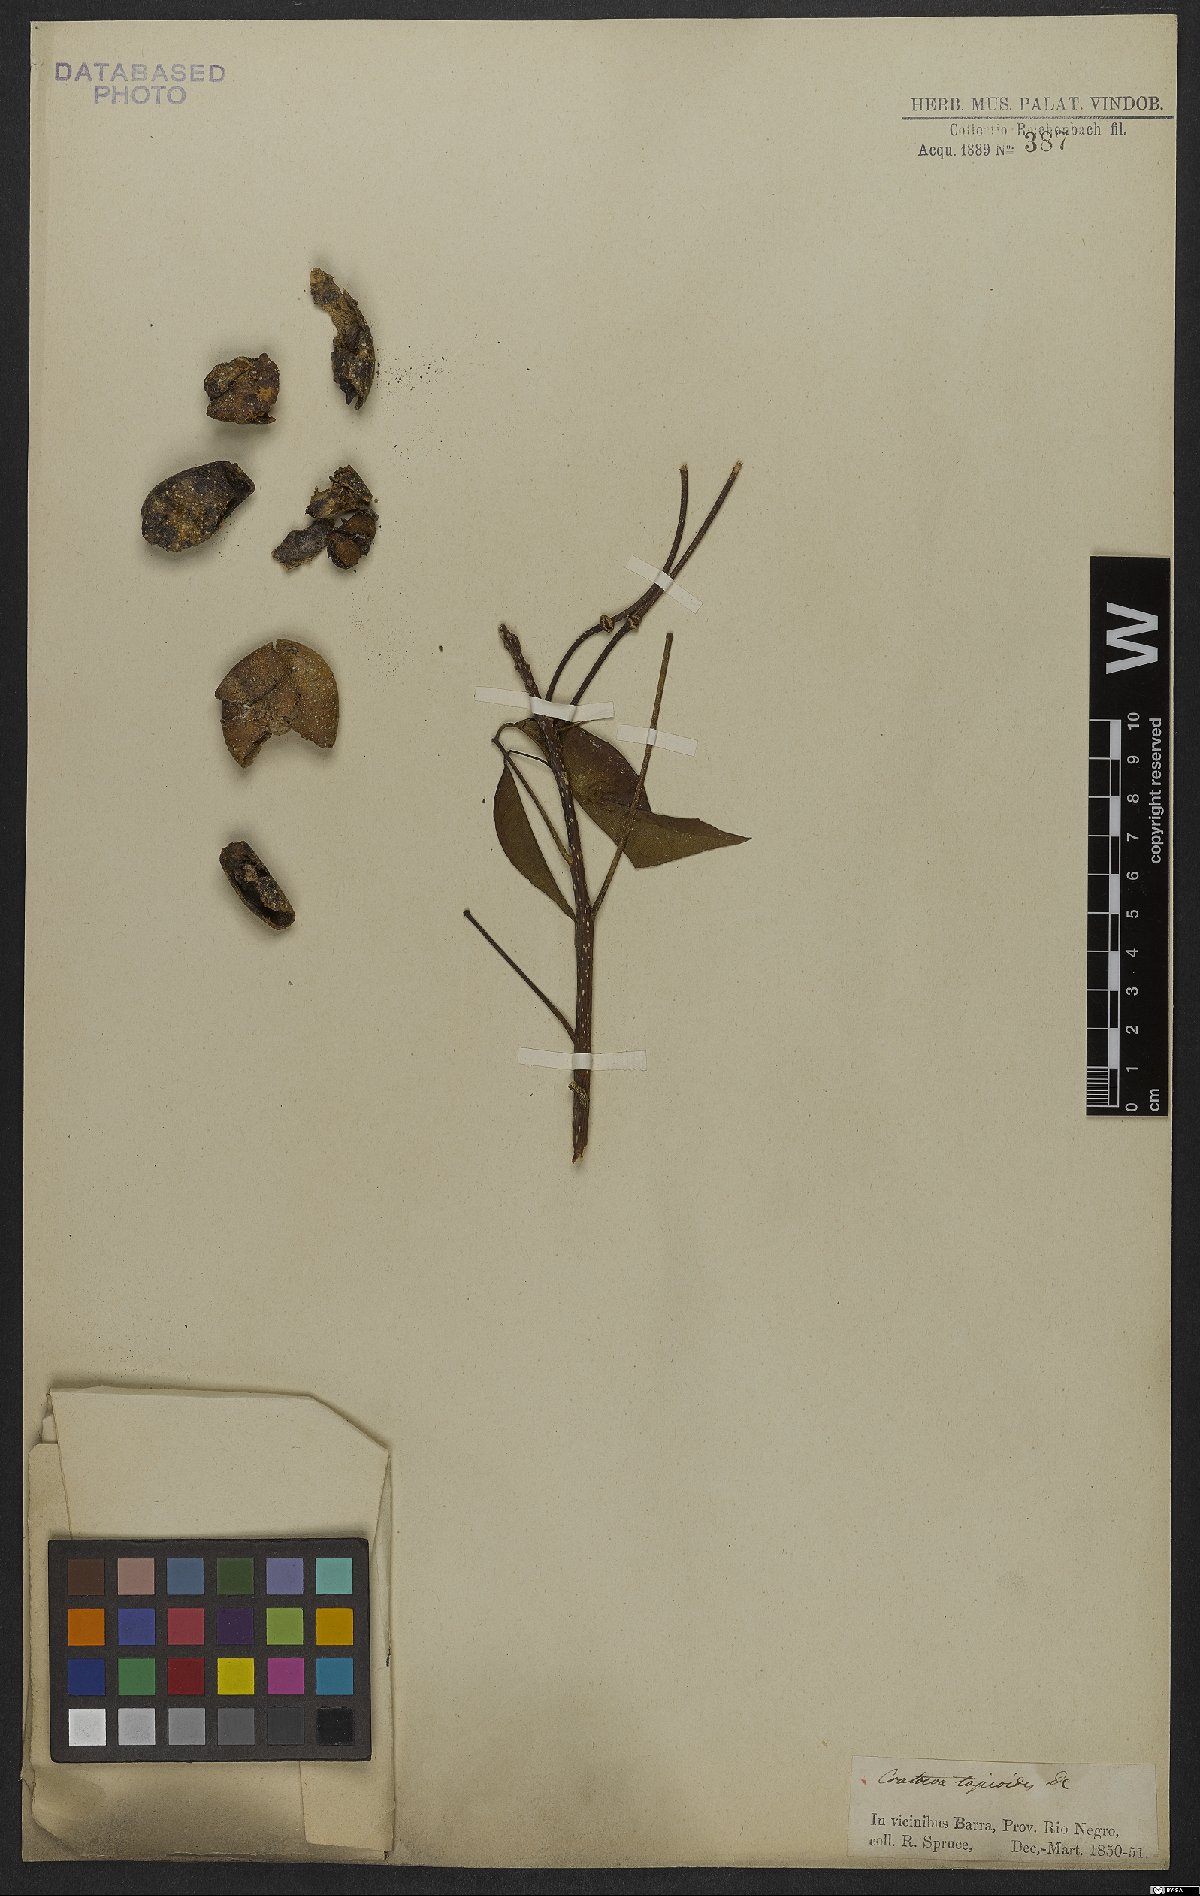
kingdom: Plantae
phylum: Tracheophyta
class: Magnoliopsida
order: Brassicales
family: Capparaceae
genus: Crateva
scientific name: Crateva tapia
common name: Garlic-pear
